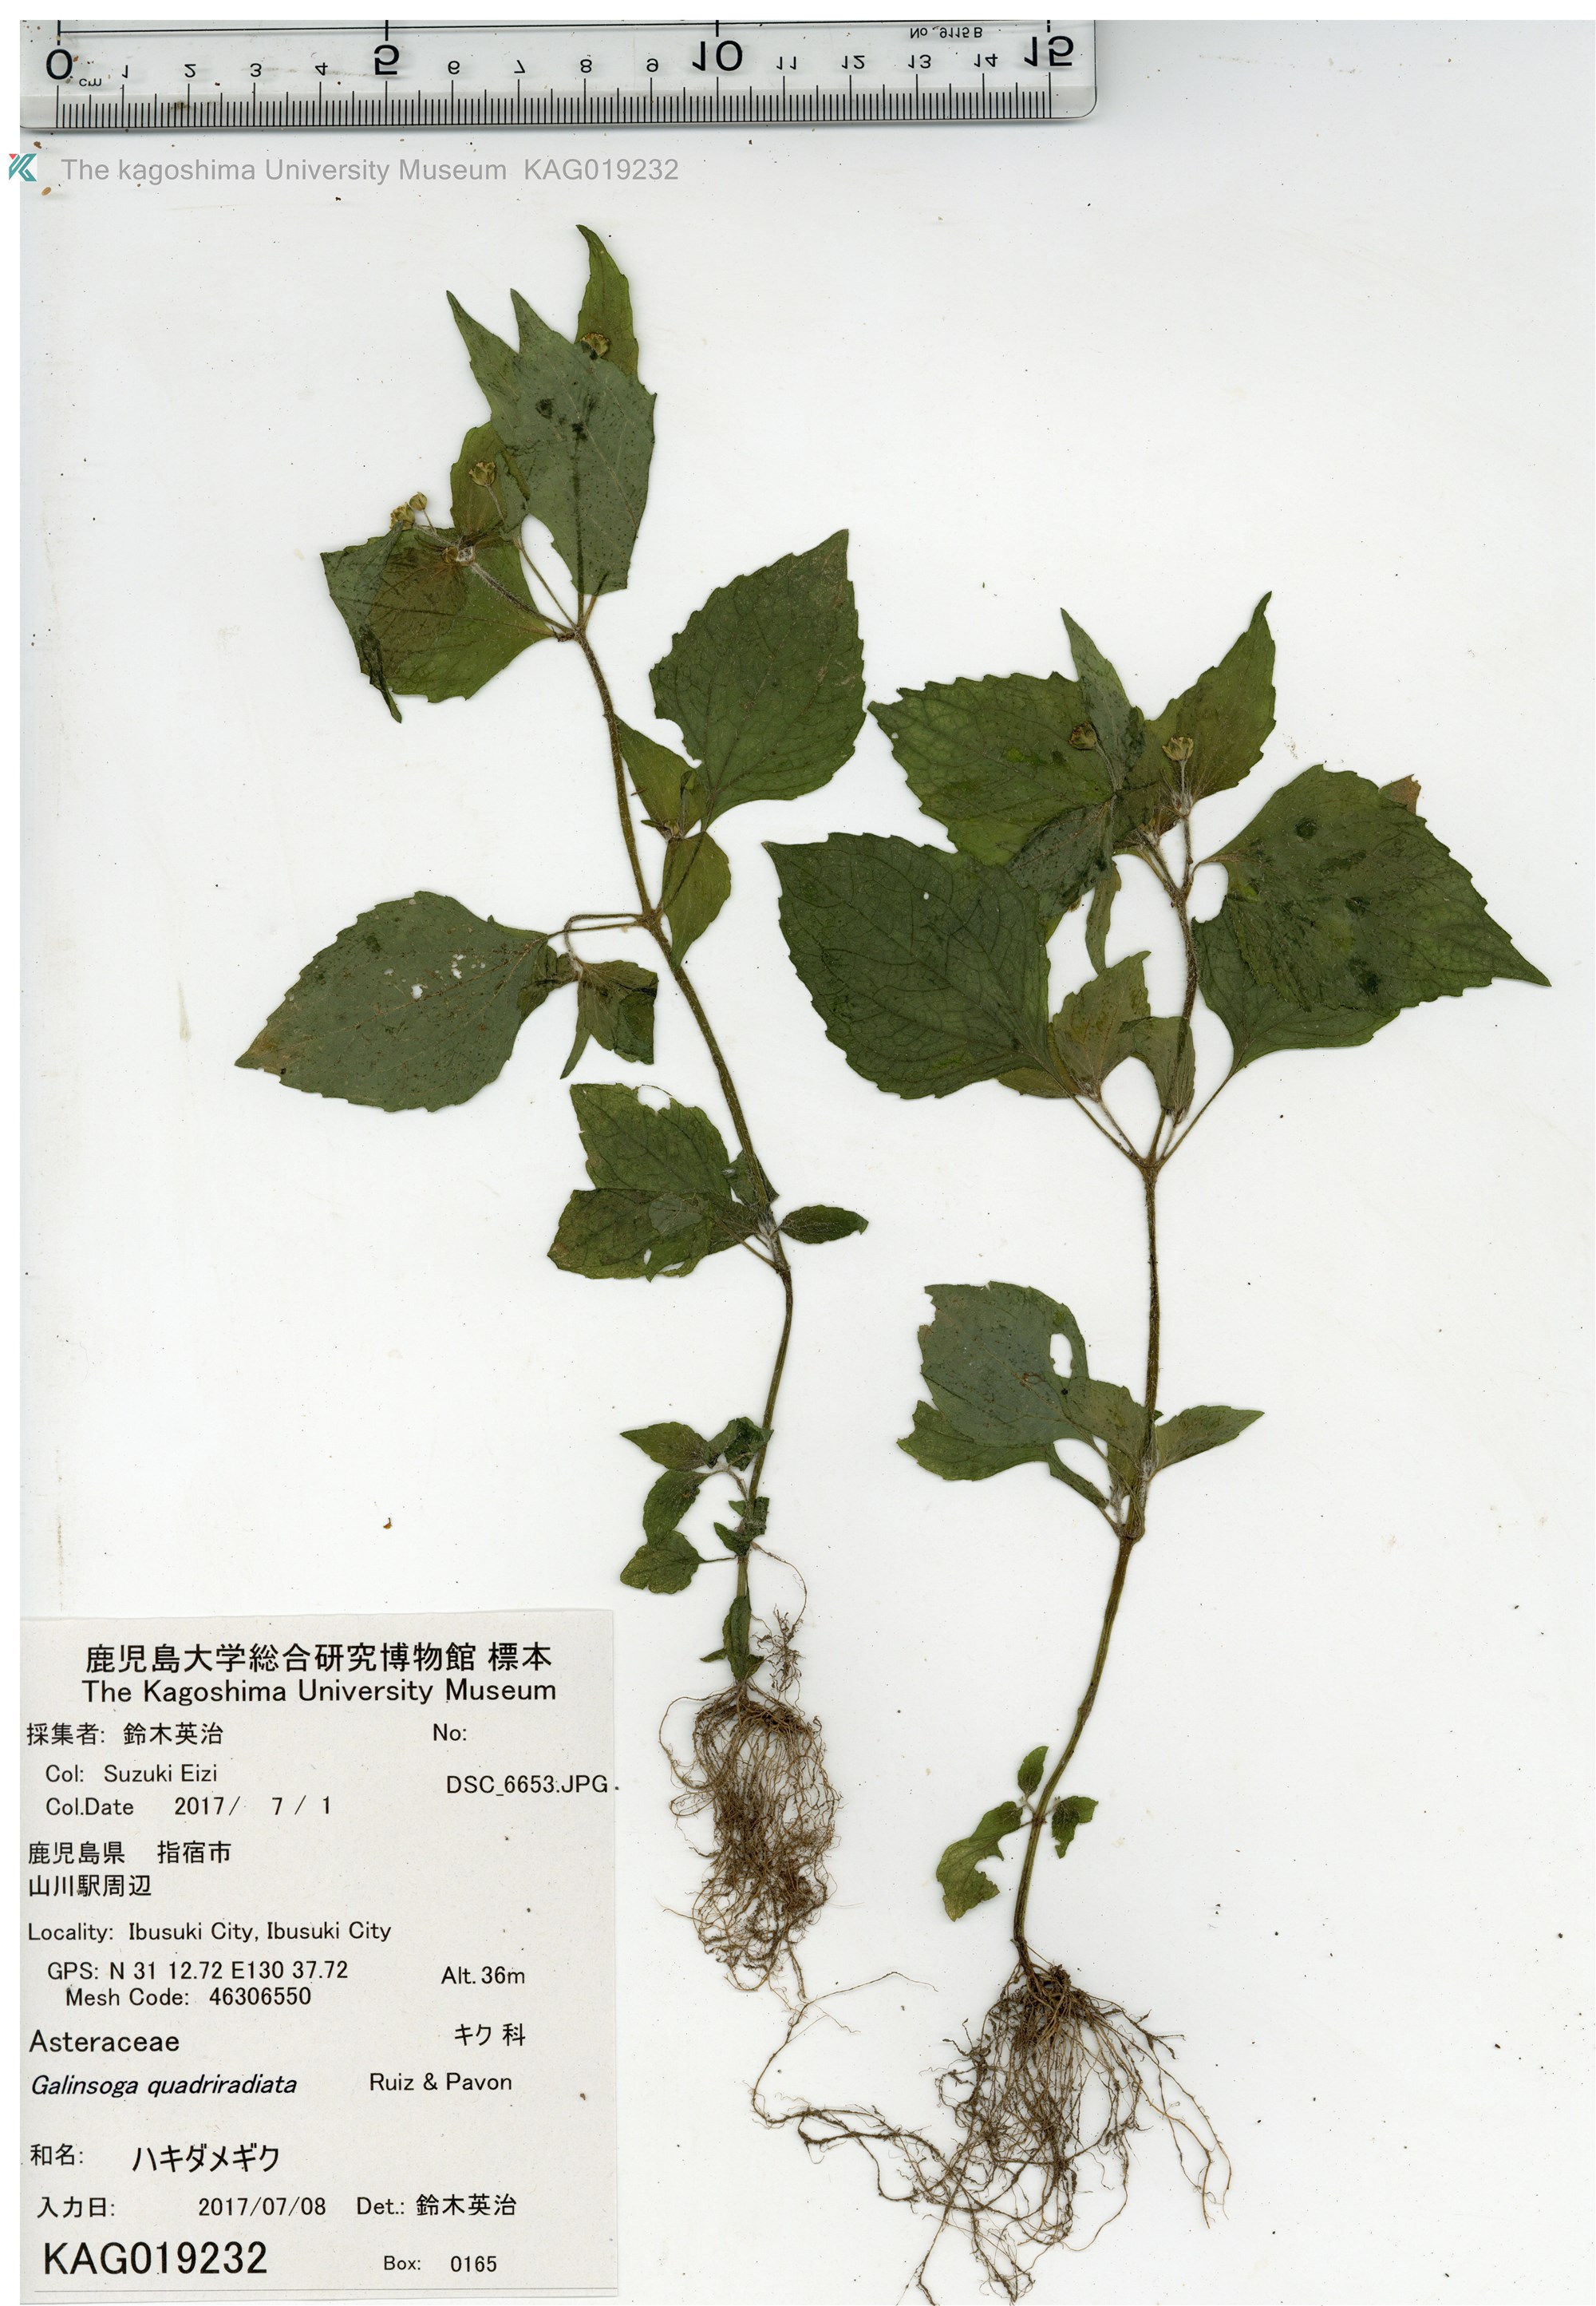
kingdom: Plantae
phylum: Tracheophyta
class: Magnoliopsida
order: Asterales
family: Asteraceae
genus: Galinsoga
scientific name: Galinsoga quadriradiata
